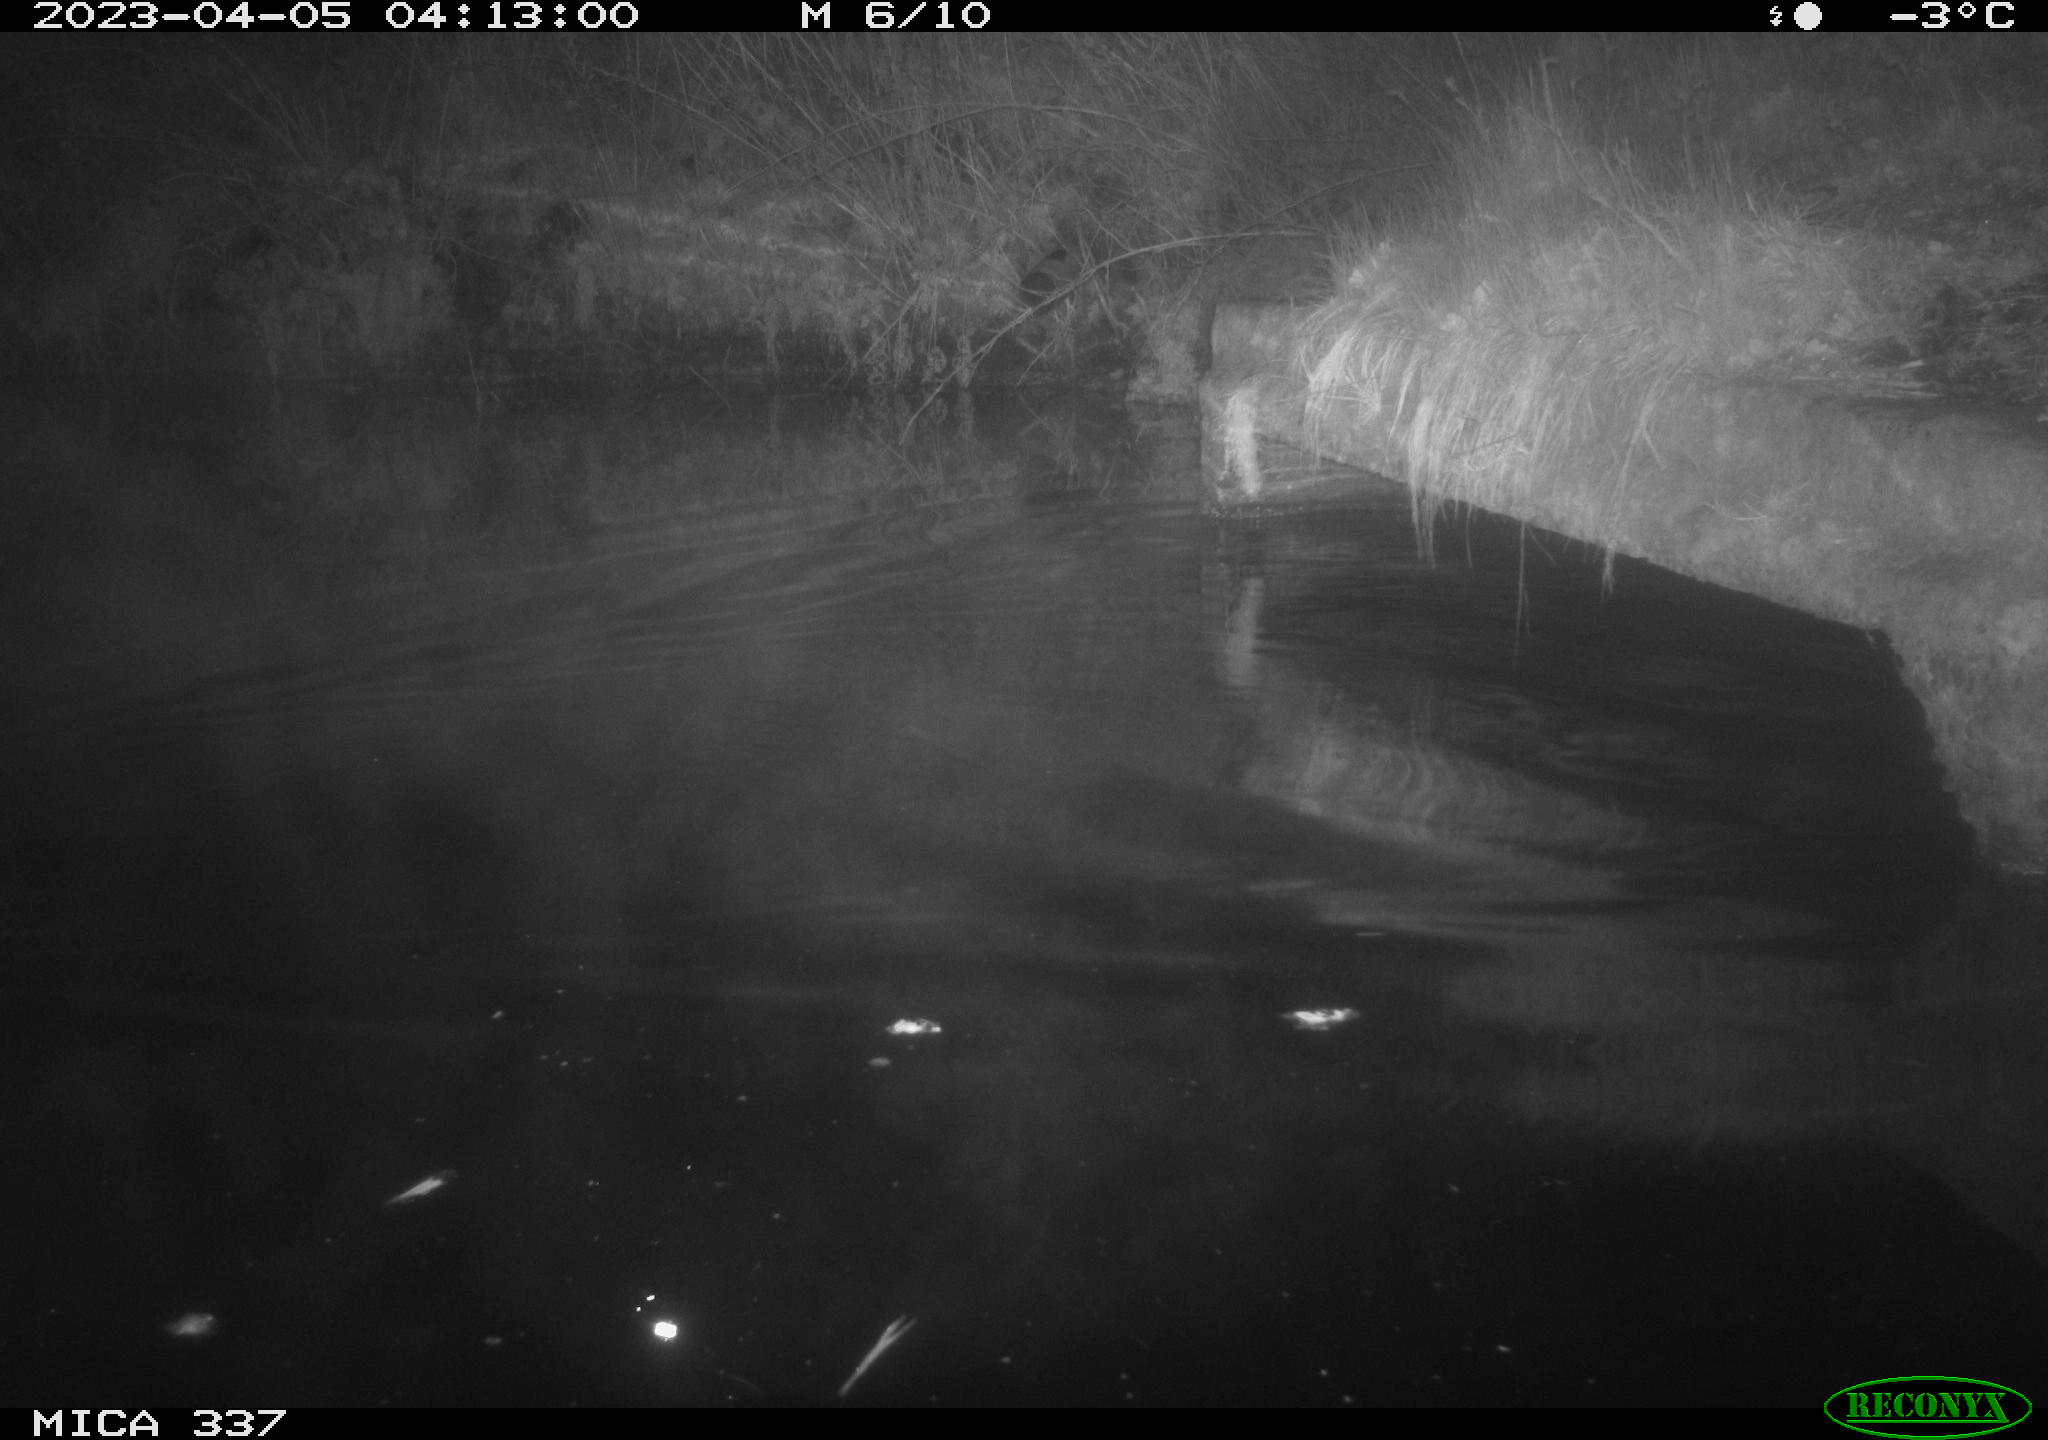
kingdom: Animalia
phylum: Chordata
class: Aves
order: Anseriformes
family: Anatidae
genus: Anas
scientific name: Anas
